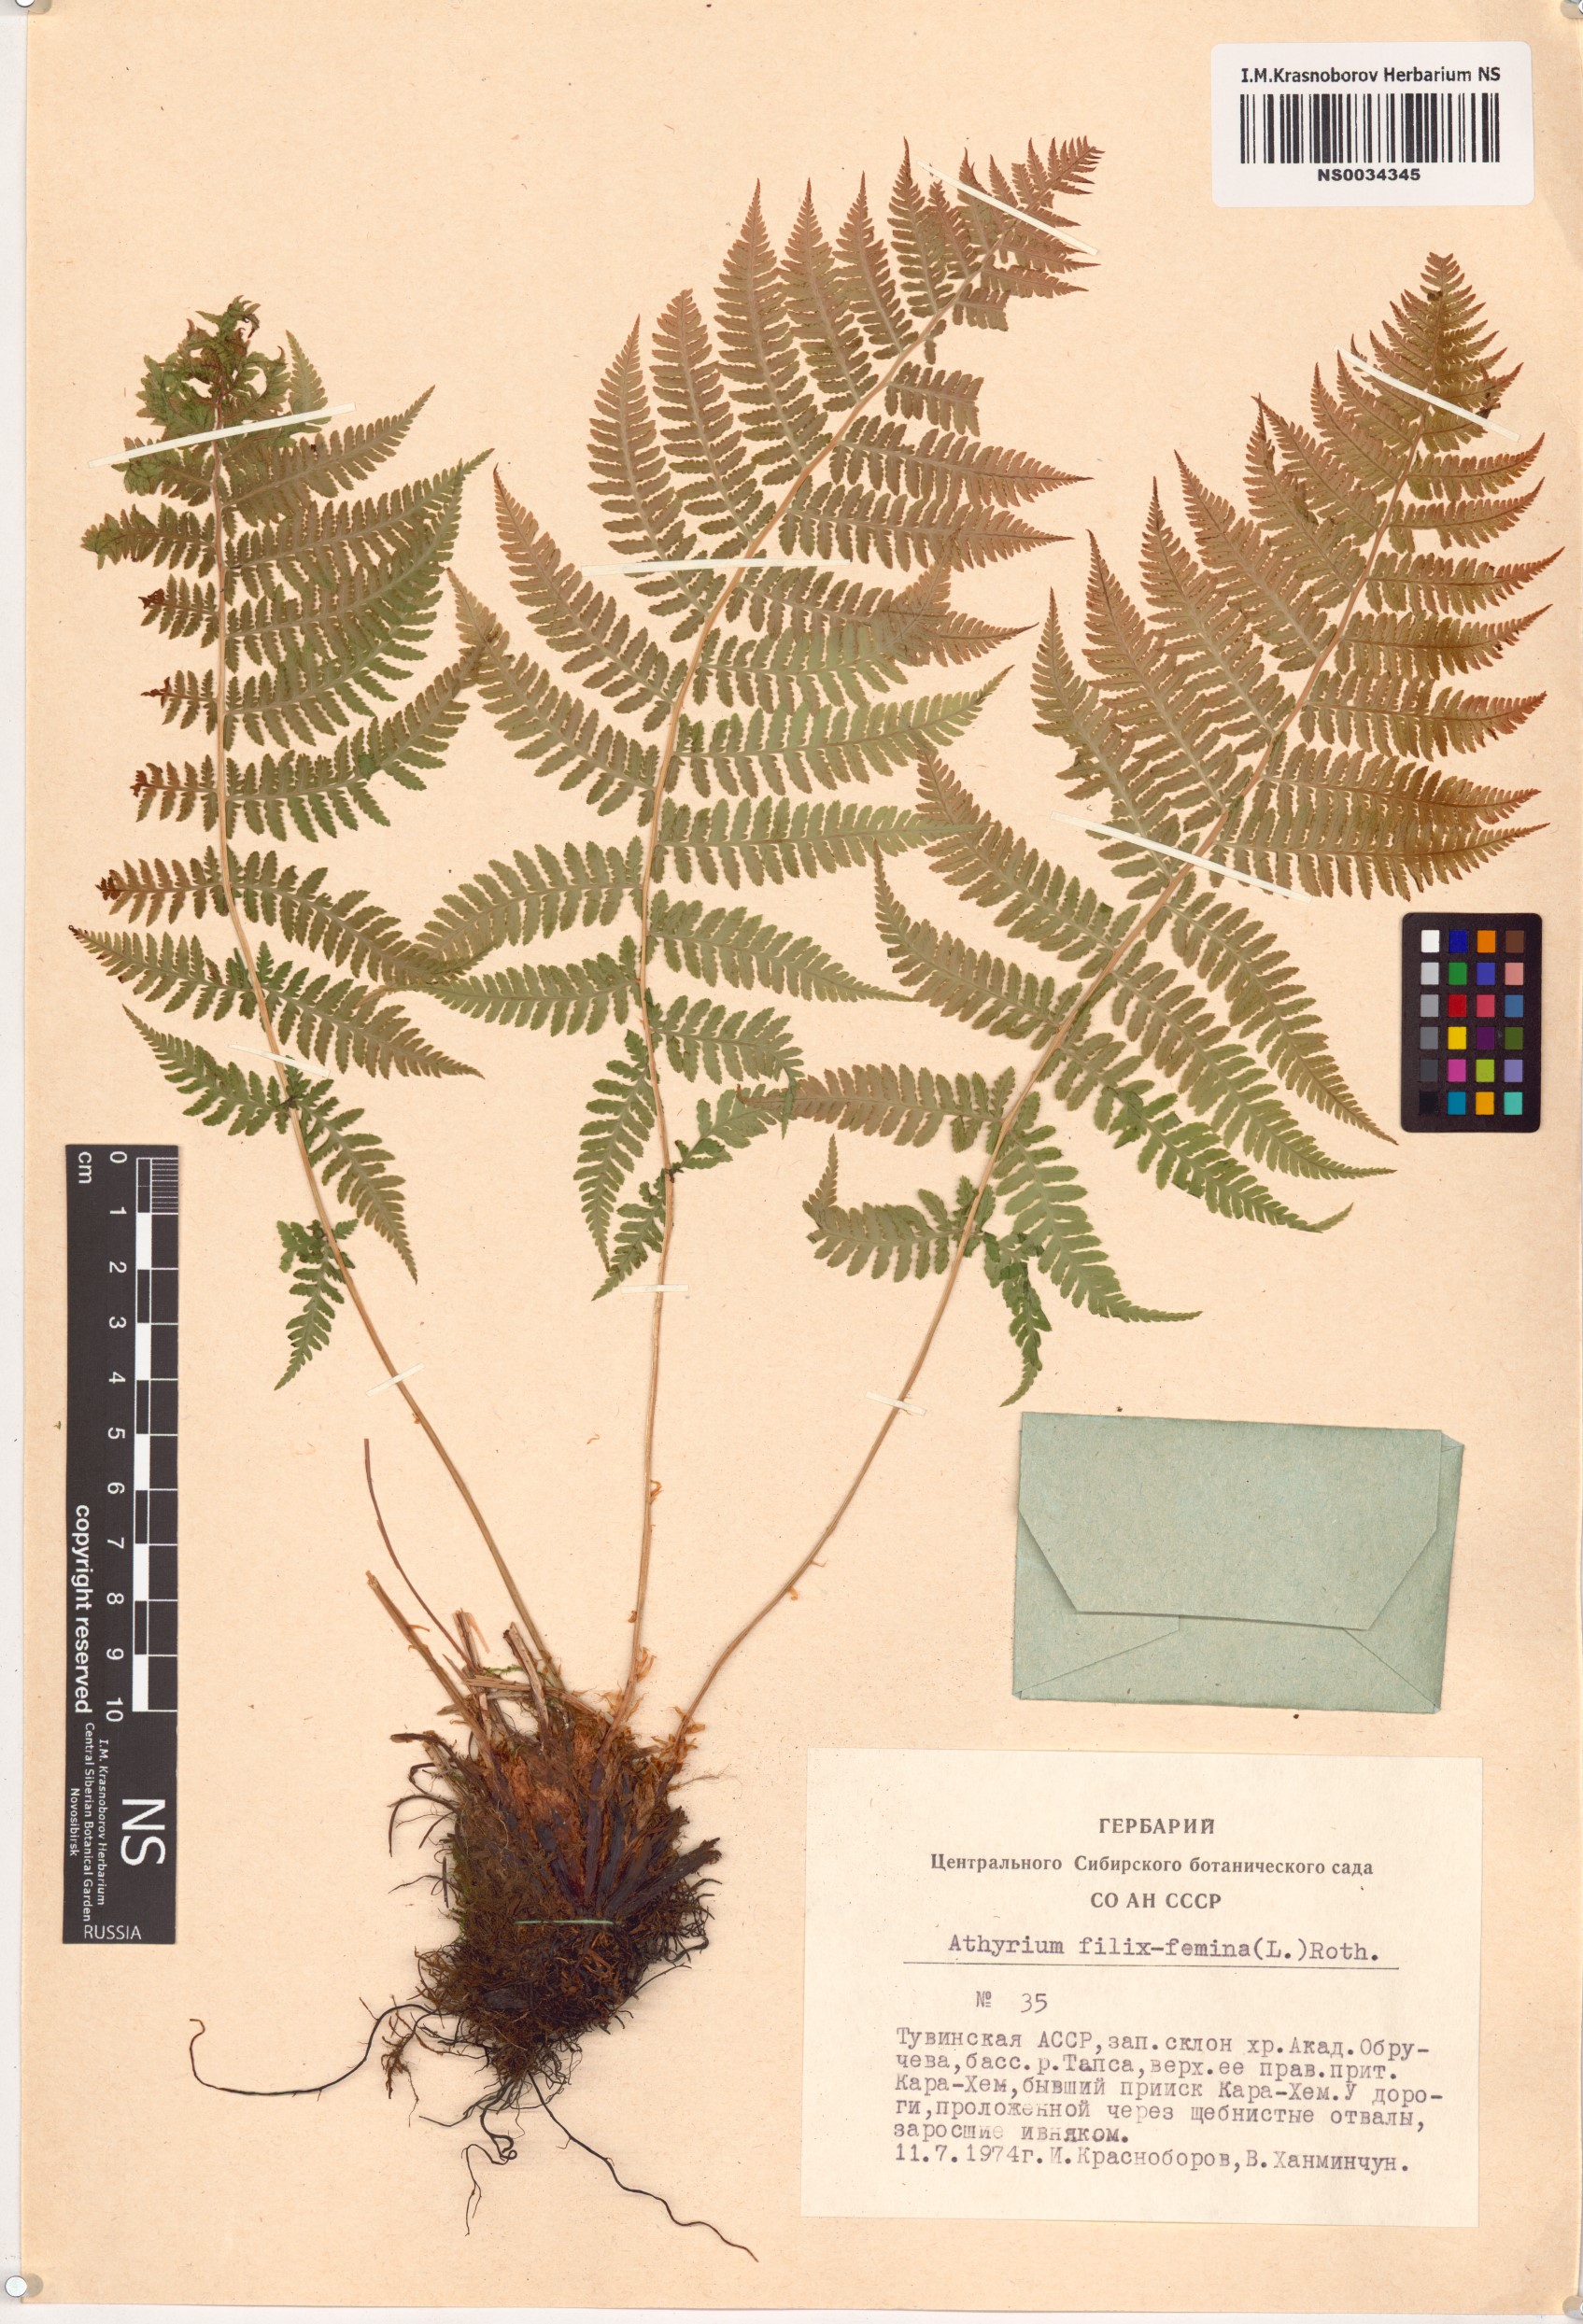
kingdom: Plantae
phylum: Tracheophyta
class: Polypodiopsida
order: Polypodiales
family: Athyriaceae
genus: Athyrium
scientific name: Athyrium filix-femina
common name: Lady fern
